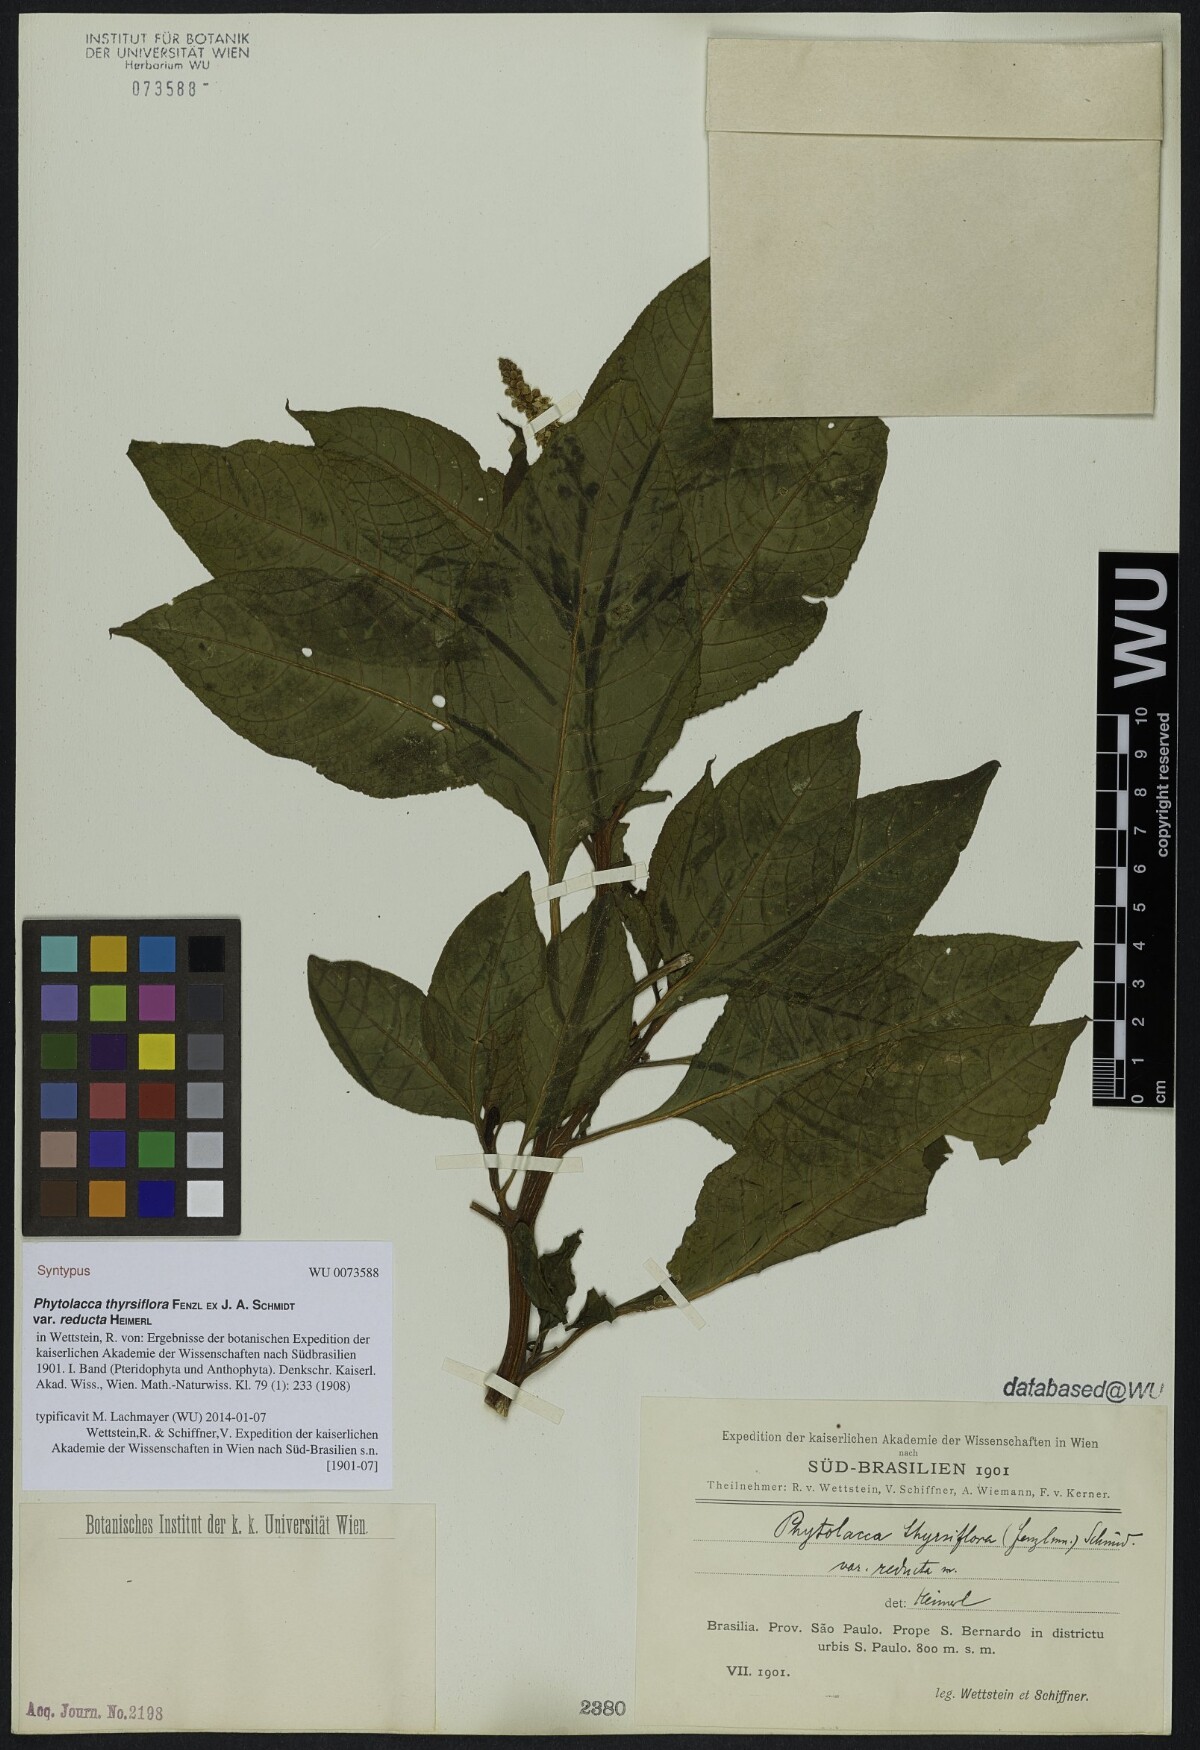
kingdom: Plantae
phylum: Tracheophyta
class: Magnoliopsida
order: Caryophyllales
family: Phytolaccaceae
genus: Phytolacca
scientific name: Phytolacca thyrsiflora
